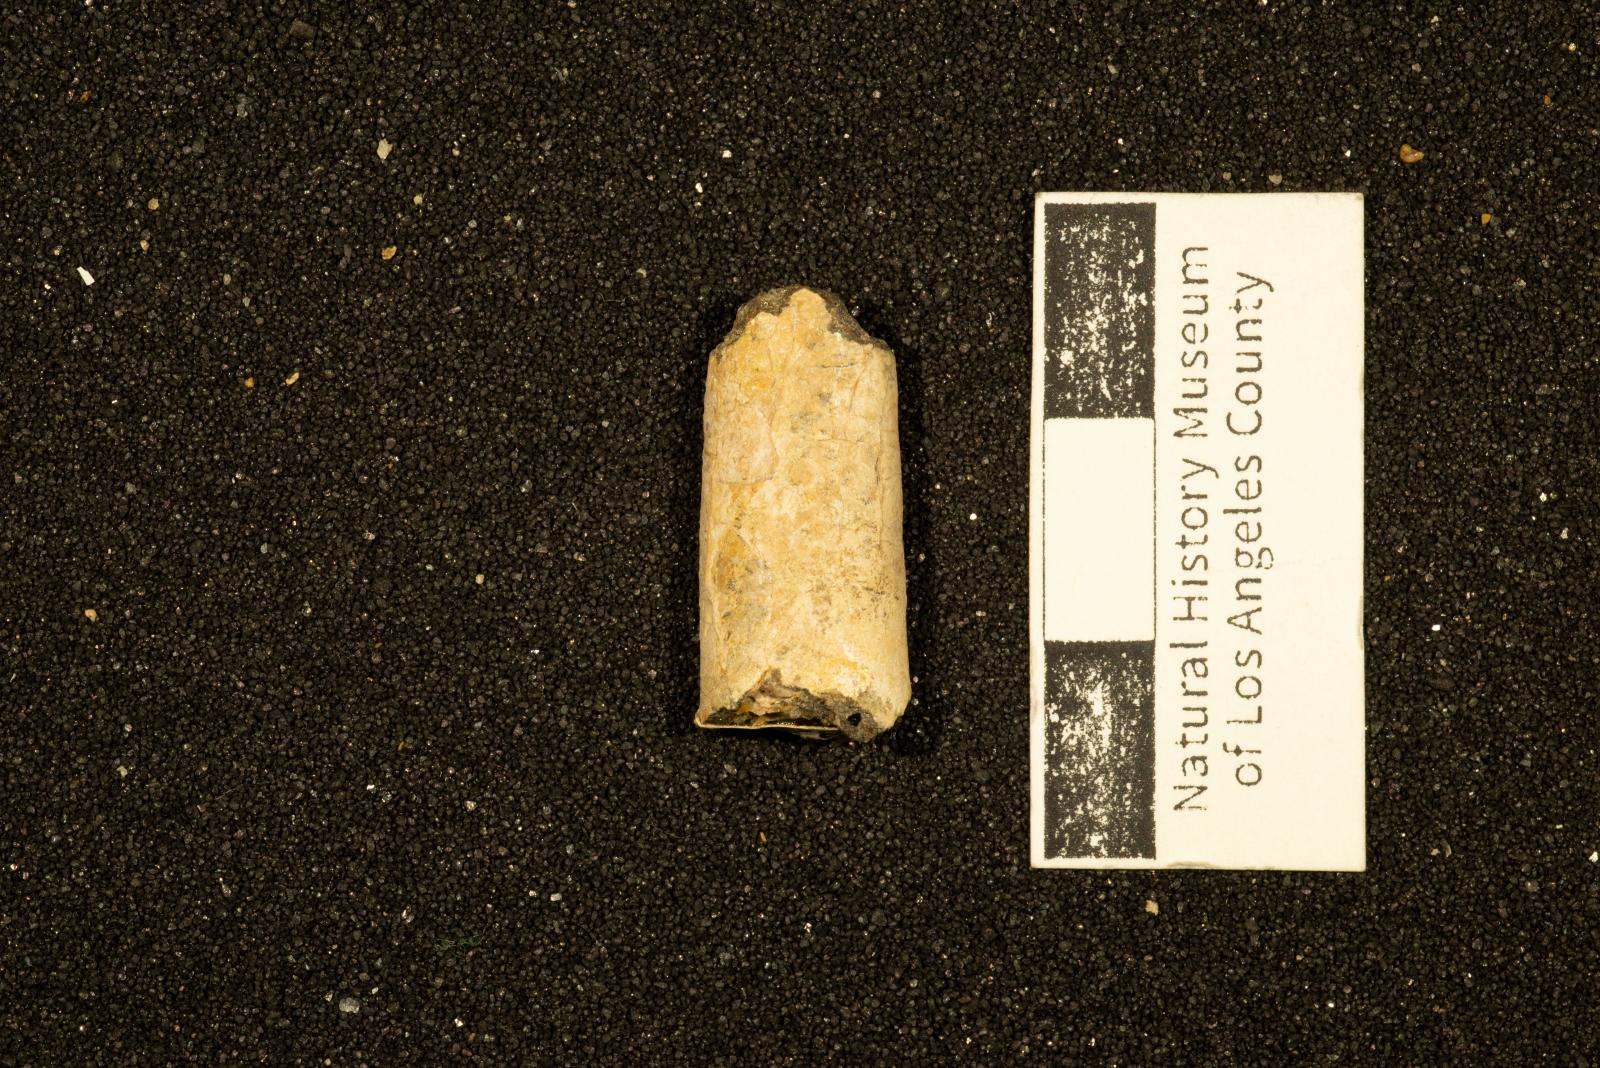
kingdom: Animalia
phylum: Mollusca
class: Cephalopoda
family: Baculitidae
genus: Sciponoceras
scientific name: Sciponoceras
